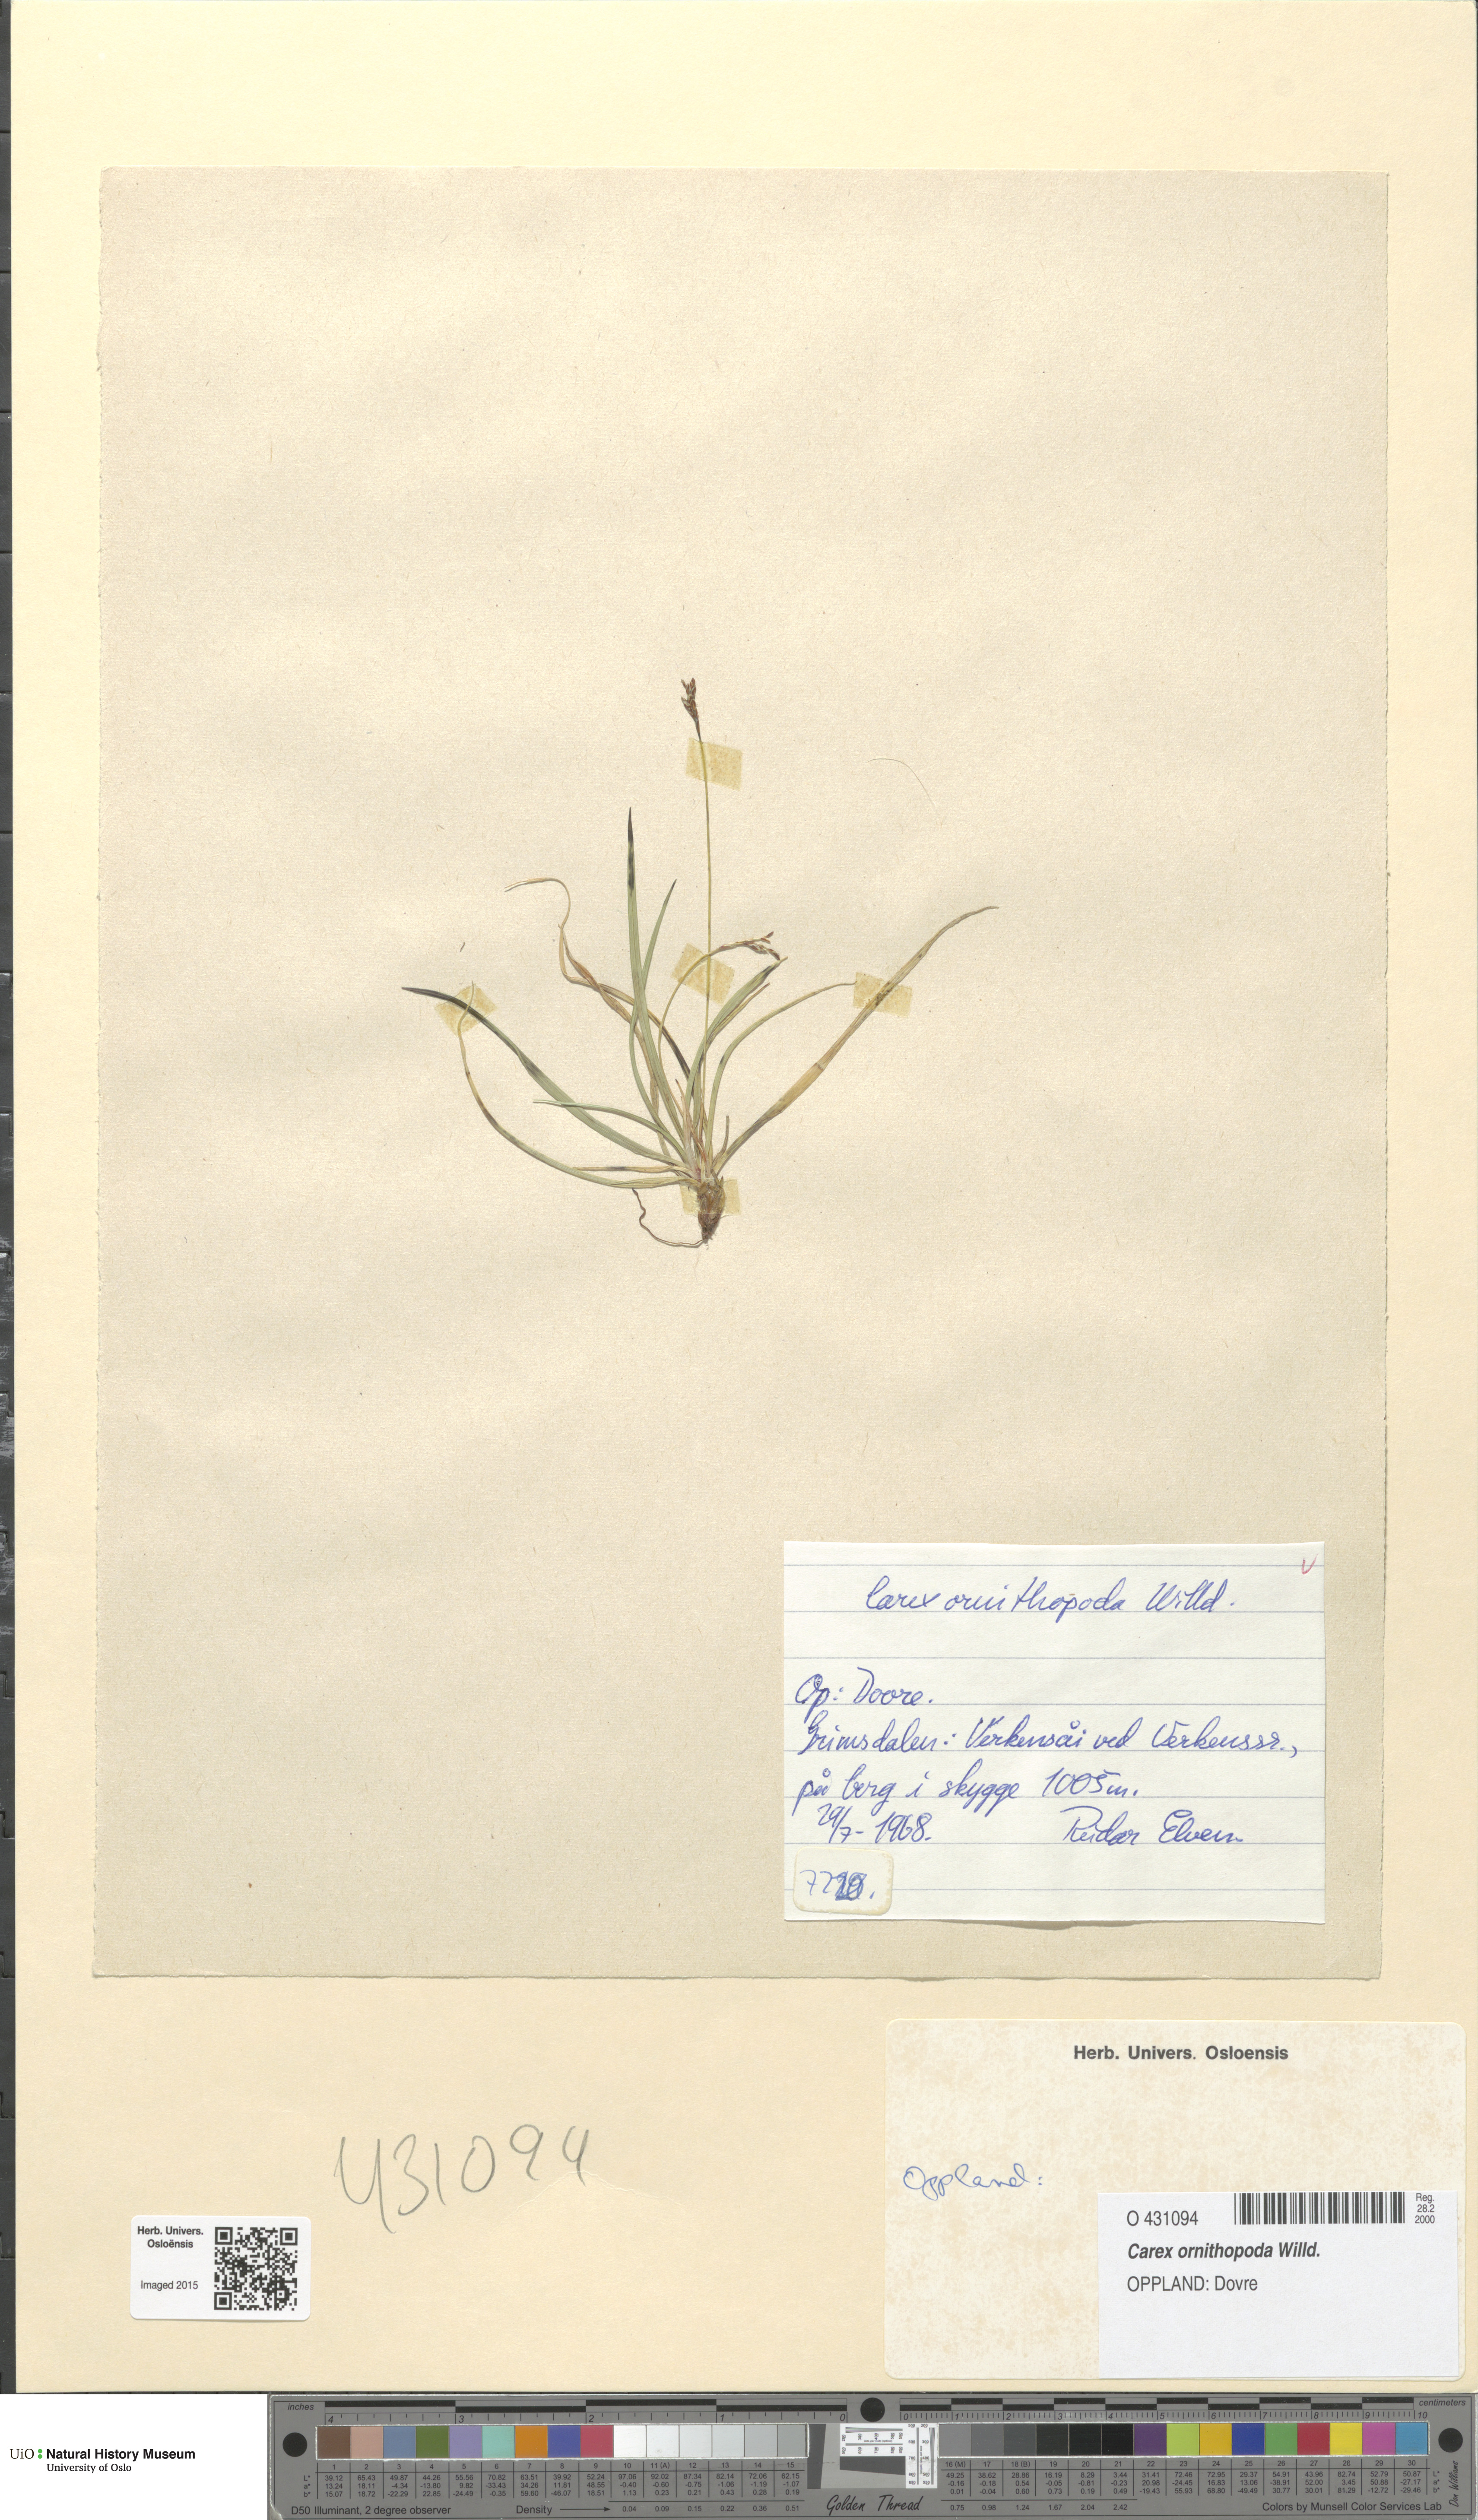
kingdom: Plantae
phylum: Tracheophyta
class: Liliopsida
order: Poales
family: Cyperaceae
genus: Carex
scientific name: Carex ornithopoda
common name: Bird's-foot sedge
